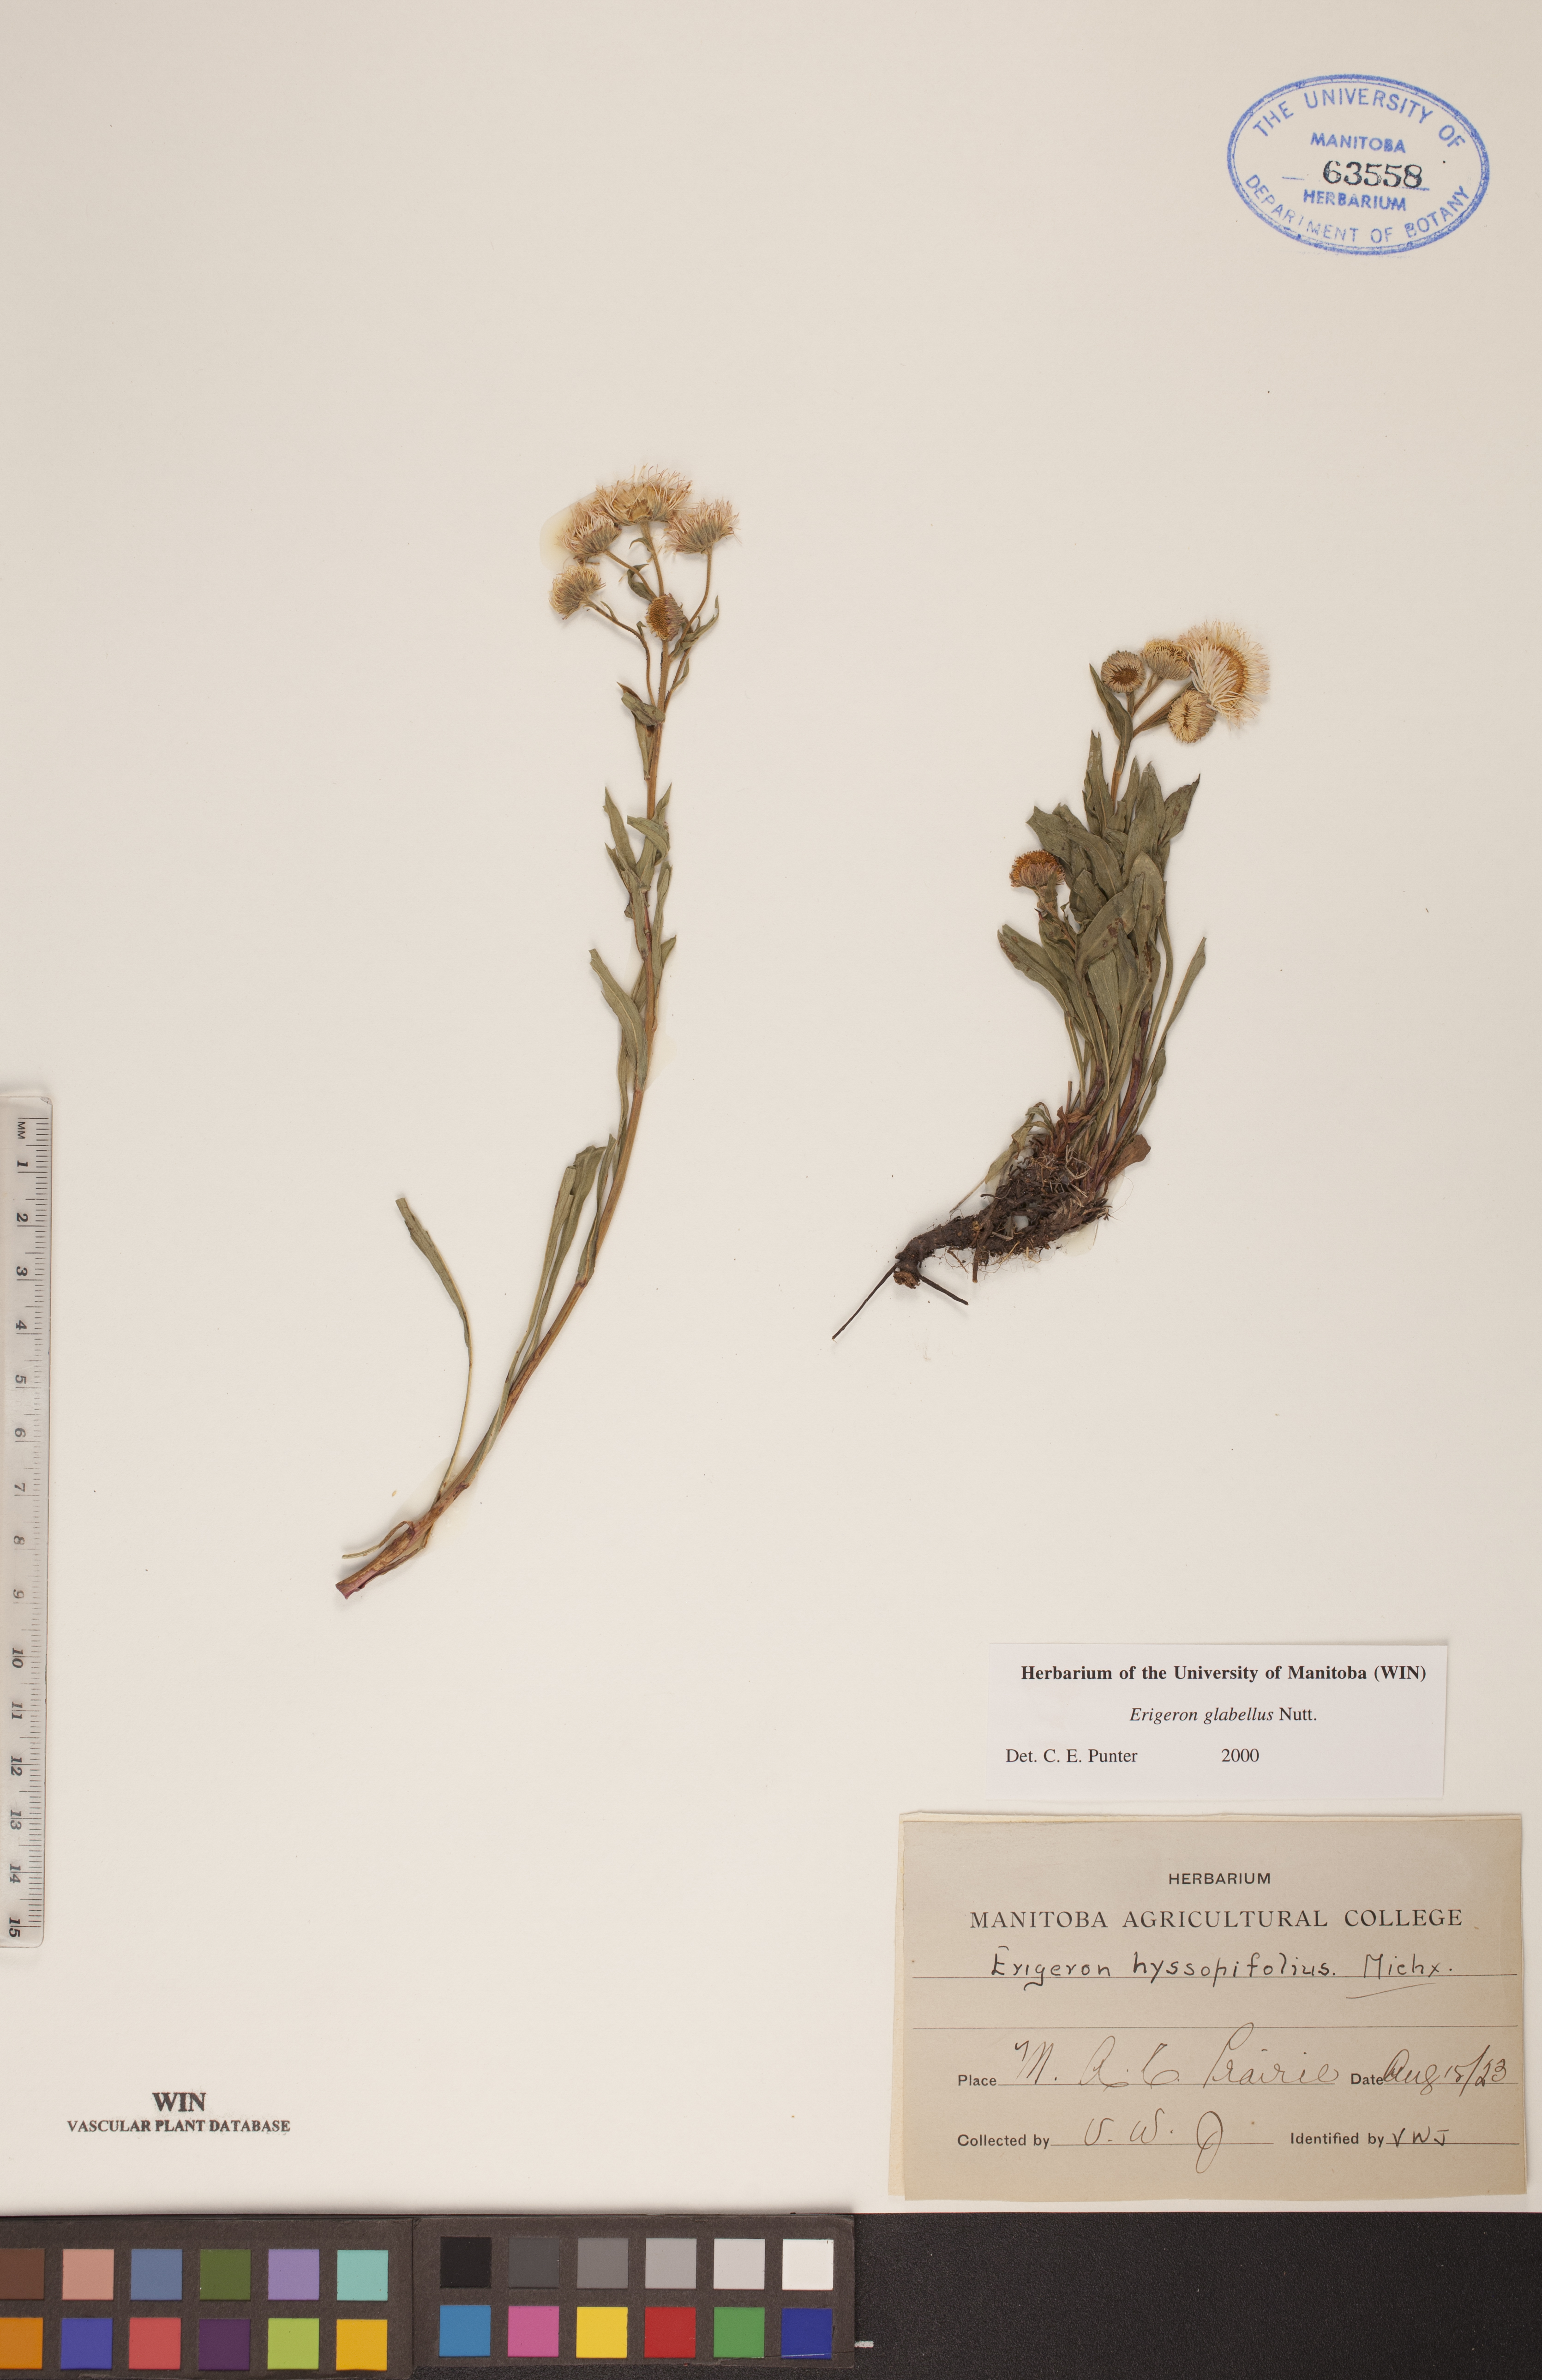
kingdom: Plantae
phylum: Tracheophyta
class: Magnoliopsida
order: Asterales
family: Asteraceae
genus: Erigeron
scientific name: Erigeron glabellus
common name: Smooth fleabane
